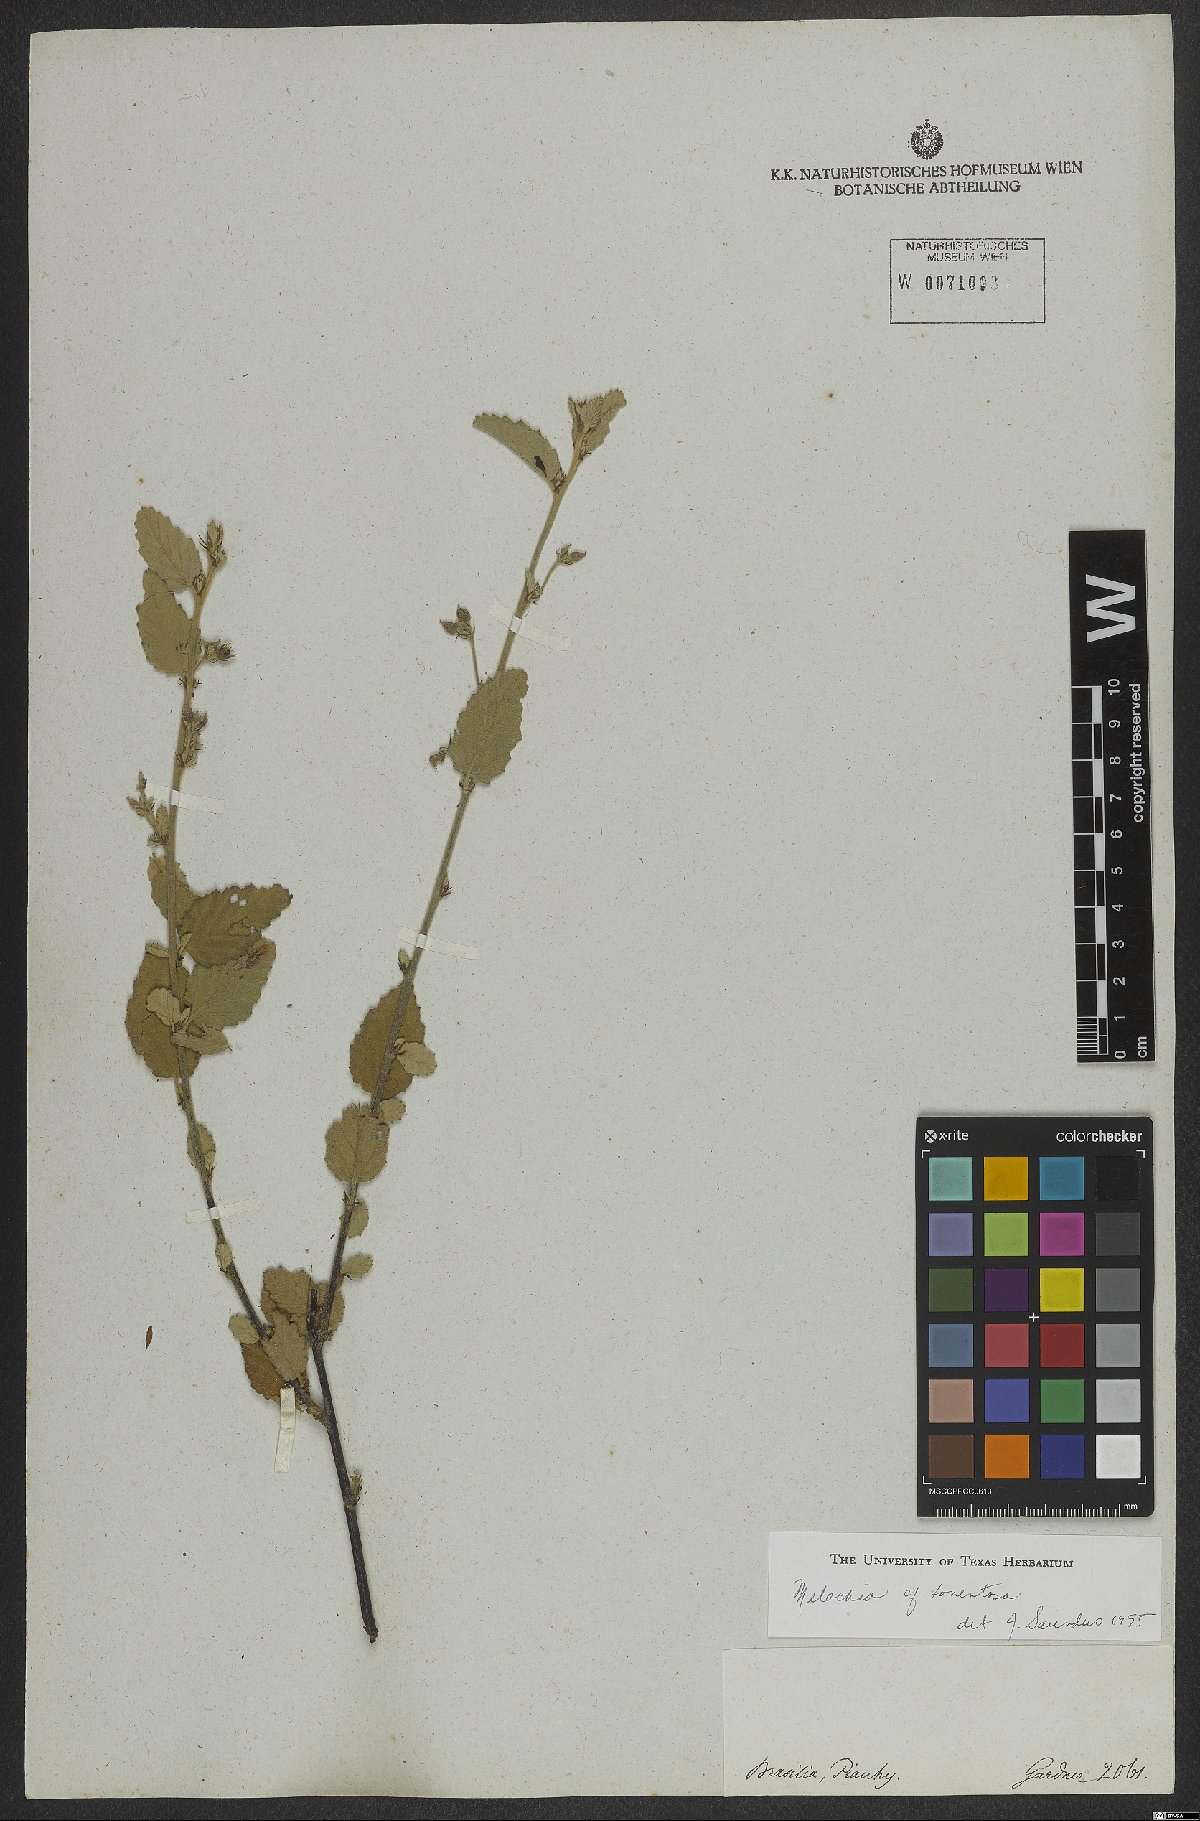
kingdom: Plantae
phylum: Tracheophyta
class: Magnoliopsida
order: Malvales
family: Malvaceae
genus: Melochia
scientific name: Melochia tomentosa
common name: Black torch
